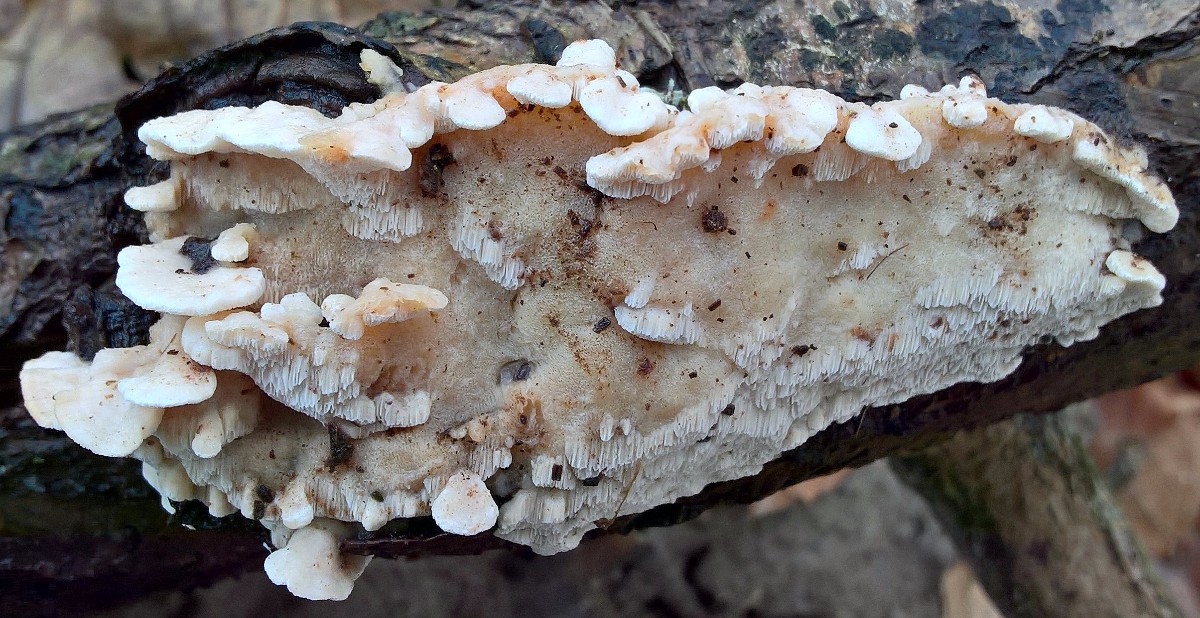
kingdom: Fungi
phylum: Basidiomycota
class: Agaricomycetes
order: Polyporales
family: Steccherinaceae
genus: Antrodiella
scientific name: Antrodiella
